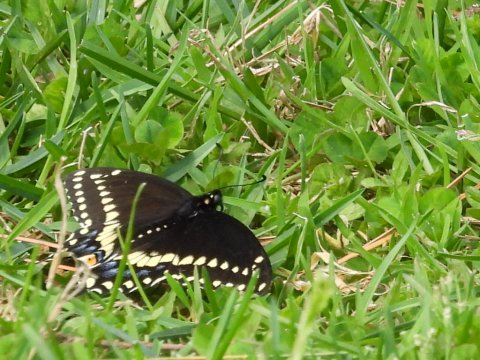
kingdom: Animalia
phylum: Arthropoda
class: Insecta
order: Lepidoptera
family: Papilionidae
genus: Papilio
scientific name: Papilio polyxenes
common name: Black Swallowtail
